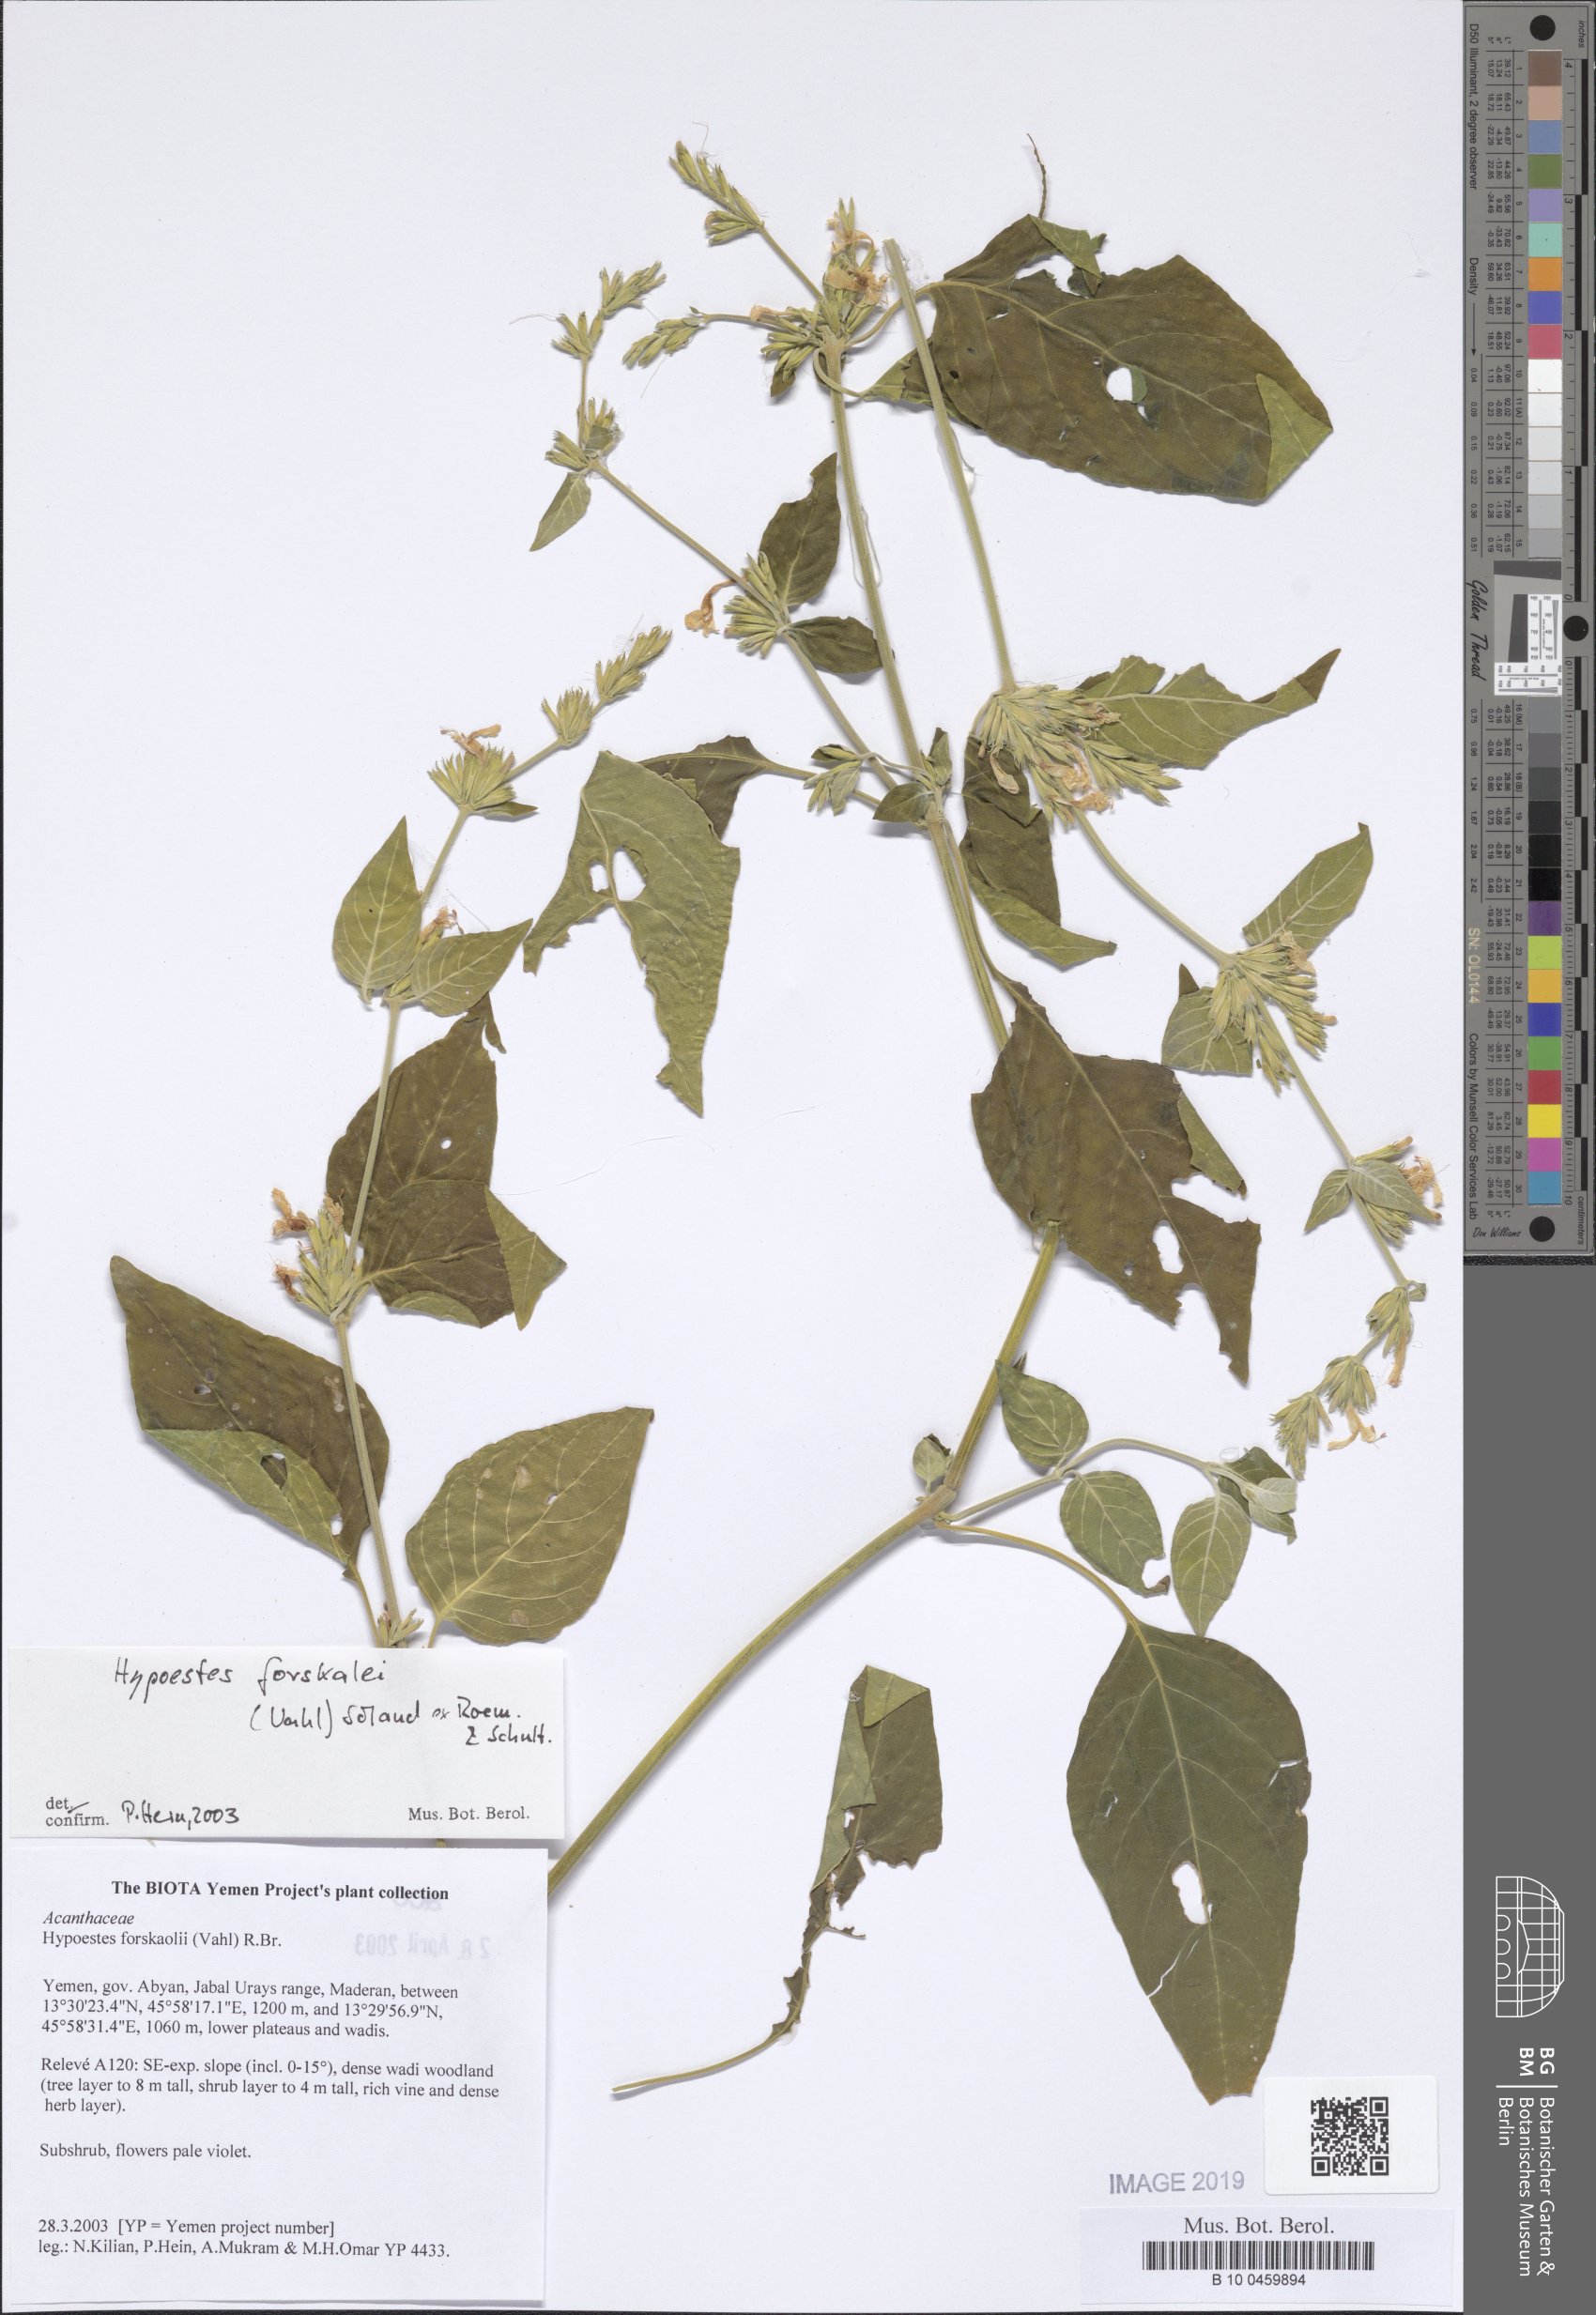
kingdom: Plantae
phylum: Tracheophyta
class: Magnoliopsida
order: Lamiales
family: Acanthaceae
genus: Hypoestes
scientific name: Hypoestes forskaolii
